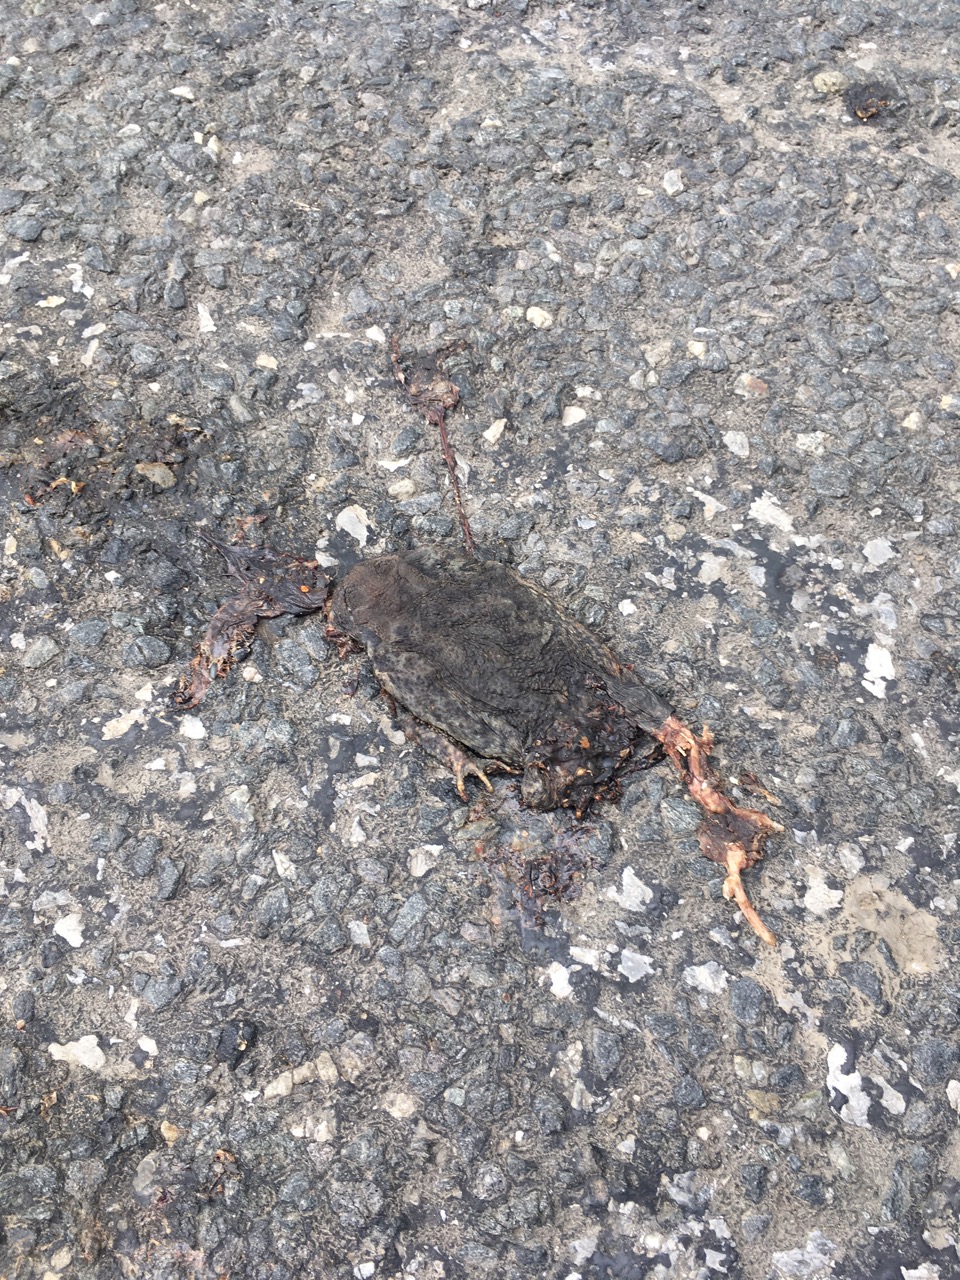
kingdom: Animalia
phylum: Chordata
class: Amphibia
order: Anura
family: Bufonidae
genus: Bufo
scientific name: Bufo bufo
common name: Common toad
